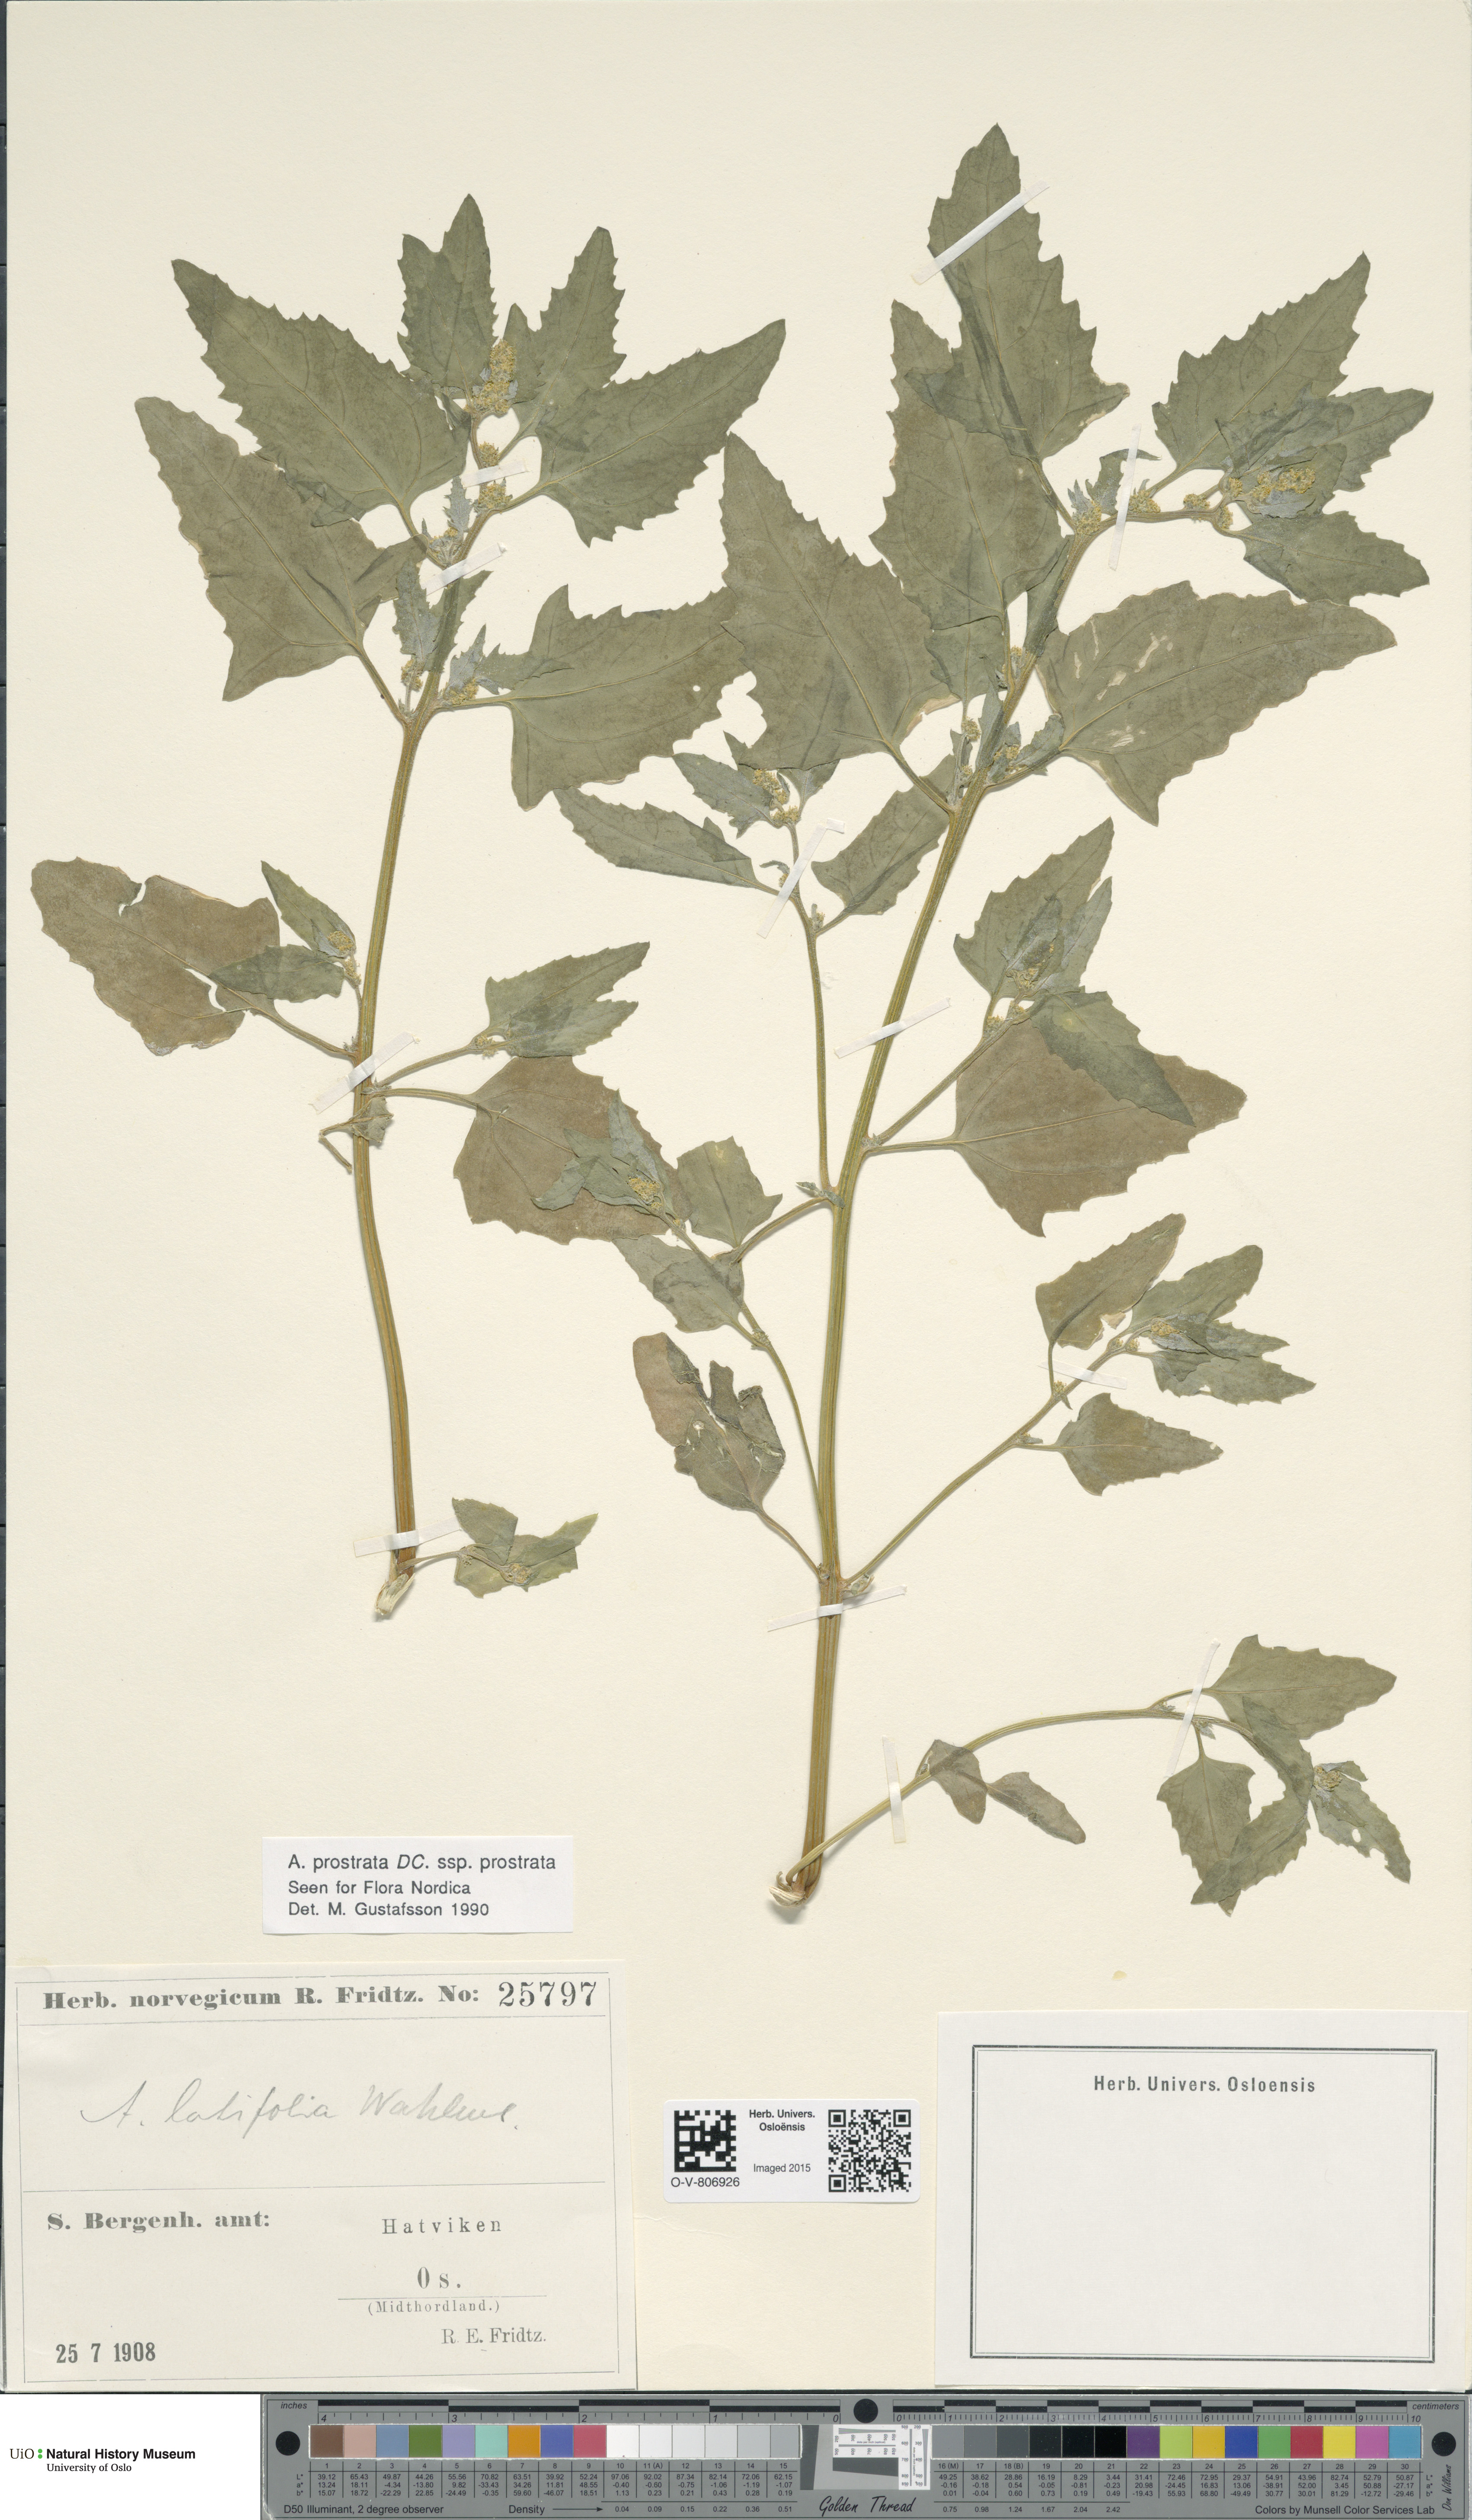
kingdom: Plantae
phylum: Tracheophyta
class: Magnoliopsida
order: Caryophyllales
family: Amaranthaceae
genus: Atriplex
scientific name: Atriplex prostrata
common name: Spear-leaved orache
